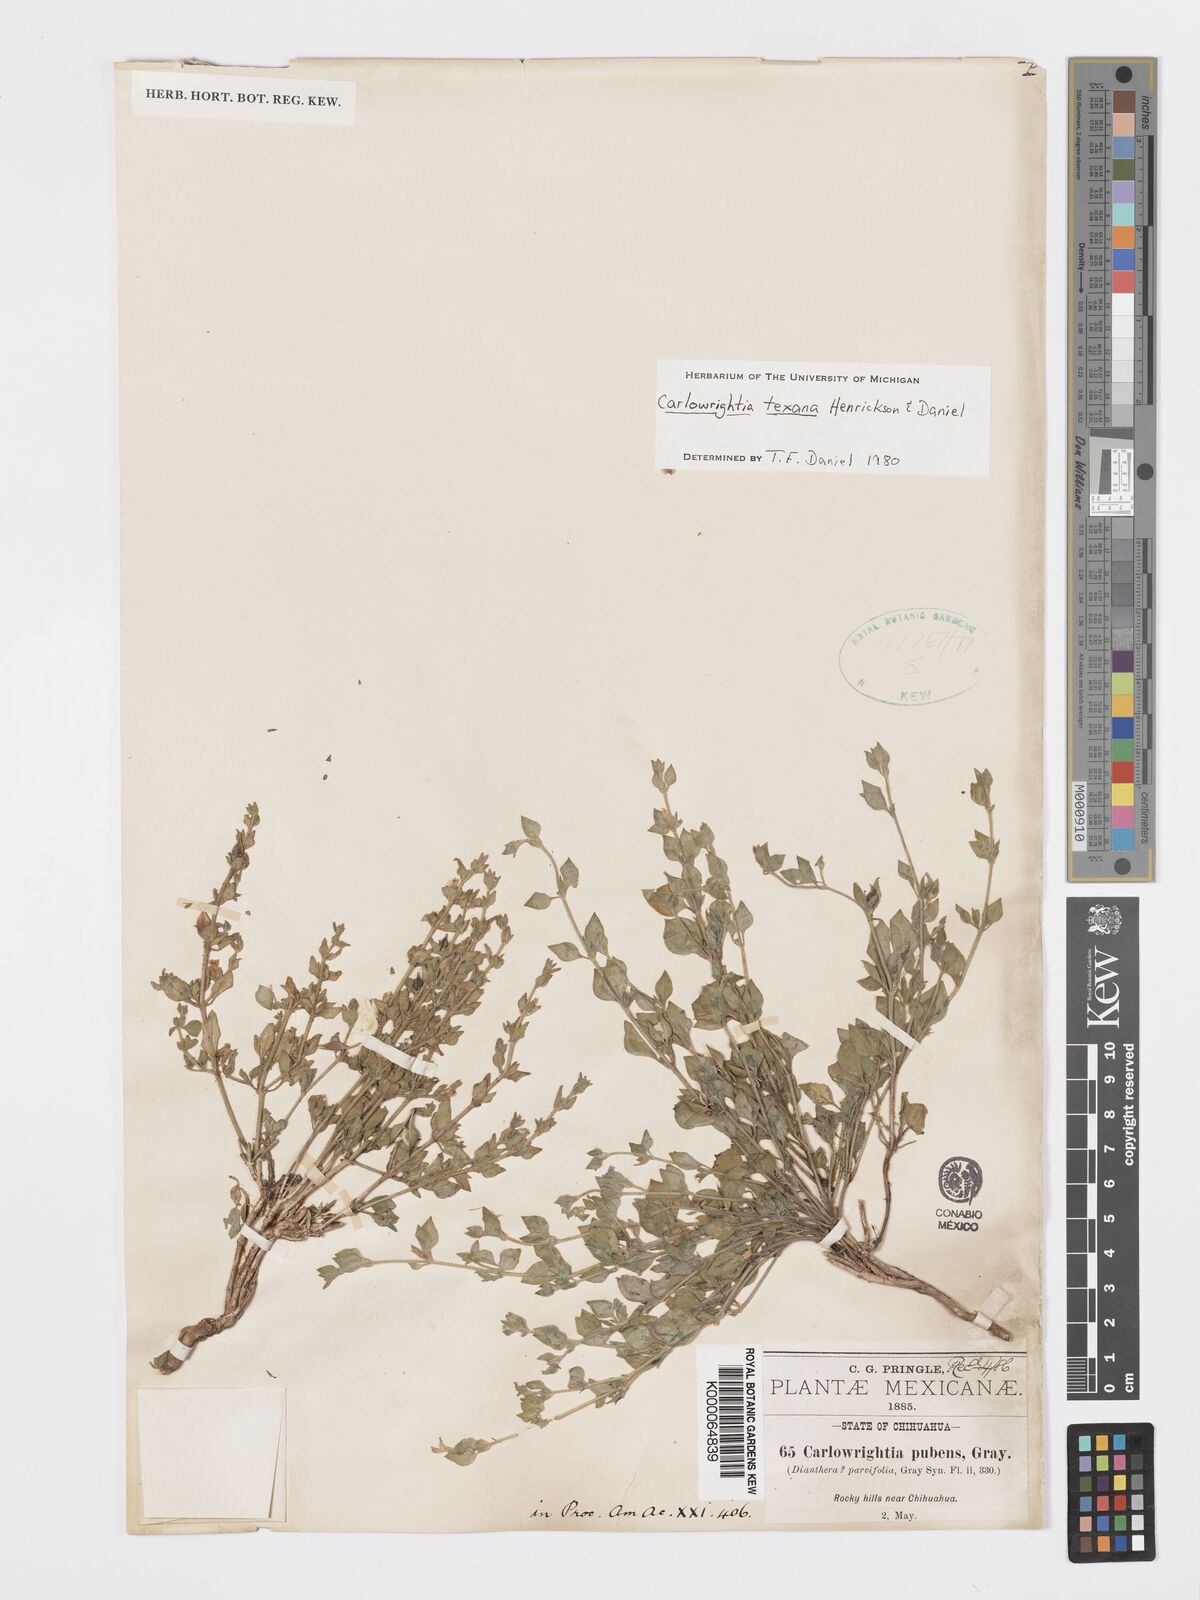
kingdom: Plantae
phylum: Tracheophyta
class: Magnoliopsida
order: Lamiales
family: Acanthaceae
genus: Carlowrightia
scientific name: Carlowrightia texana
